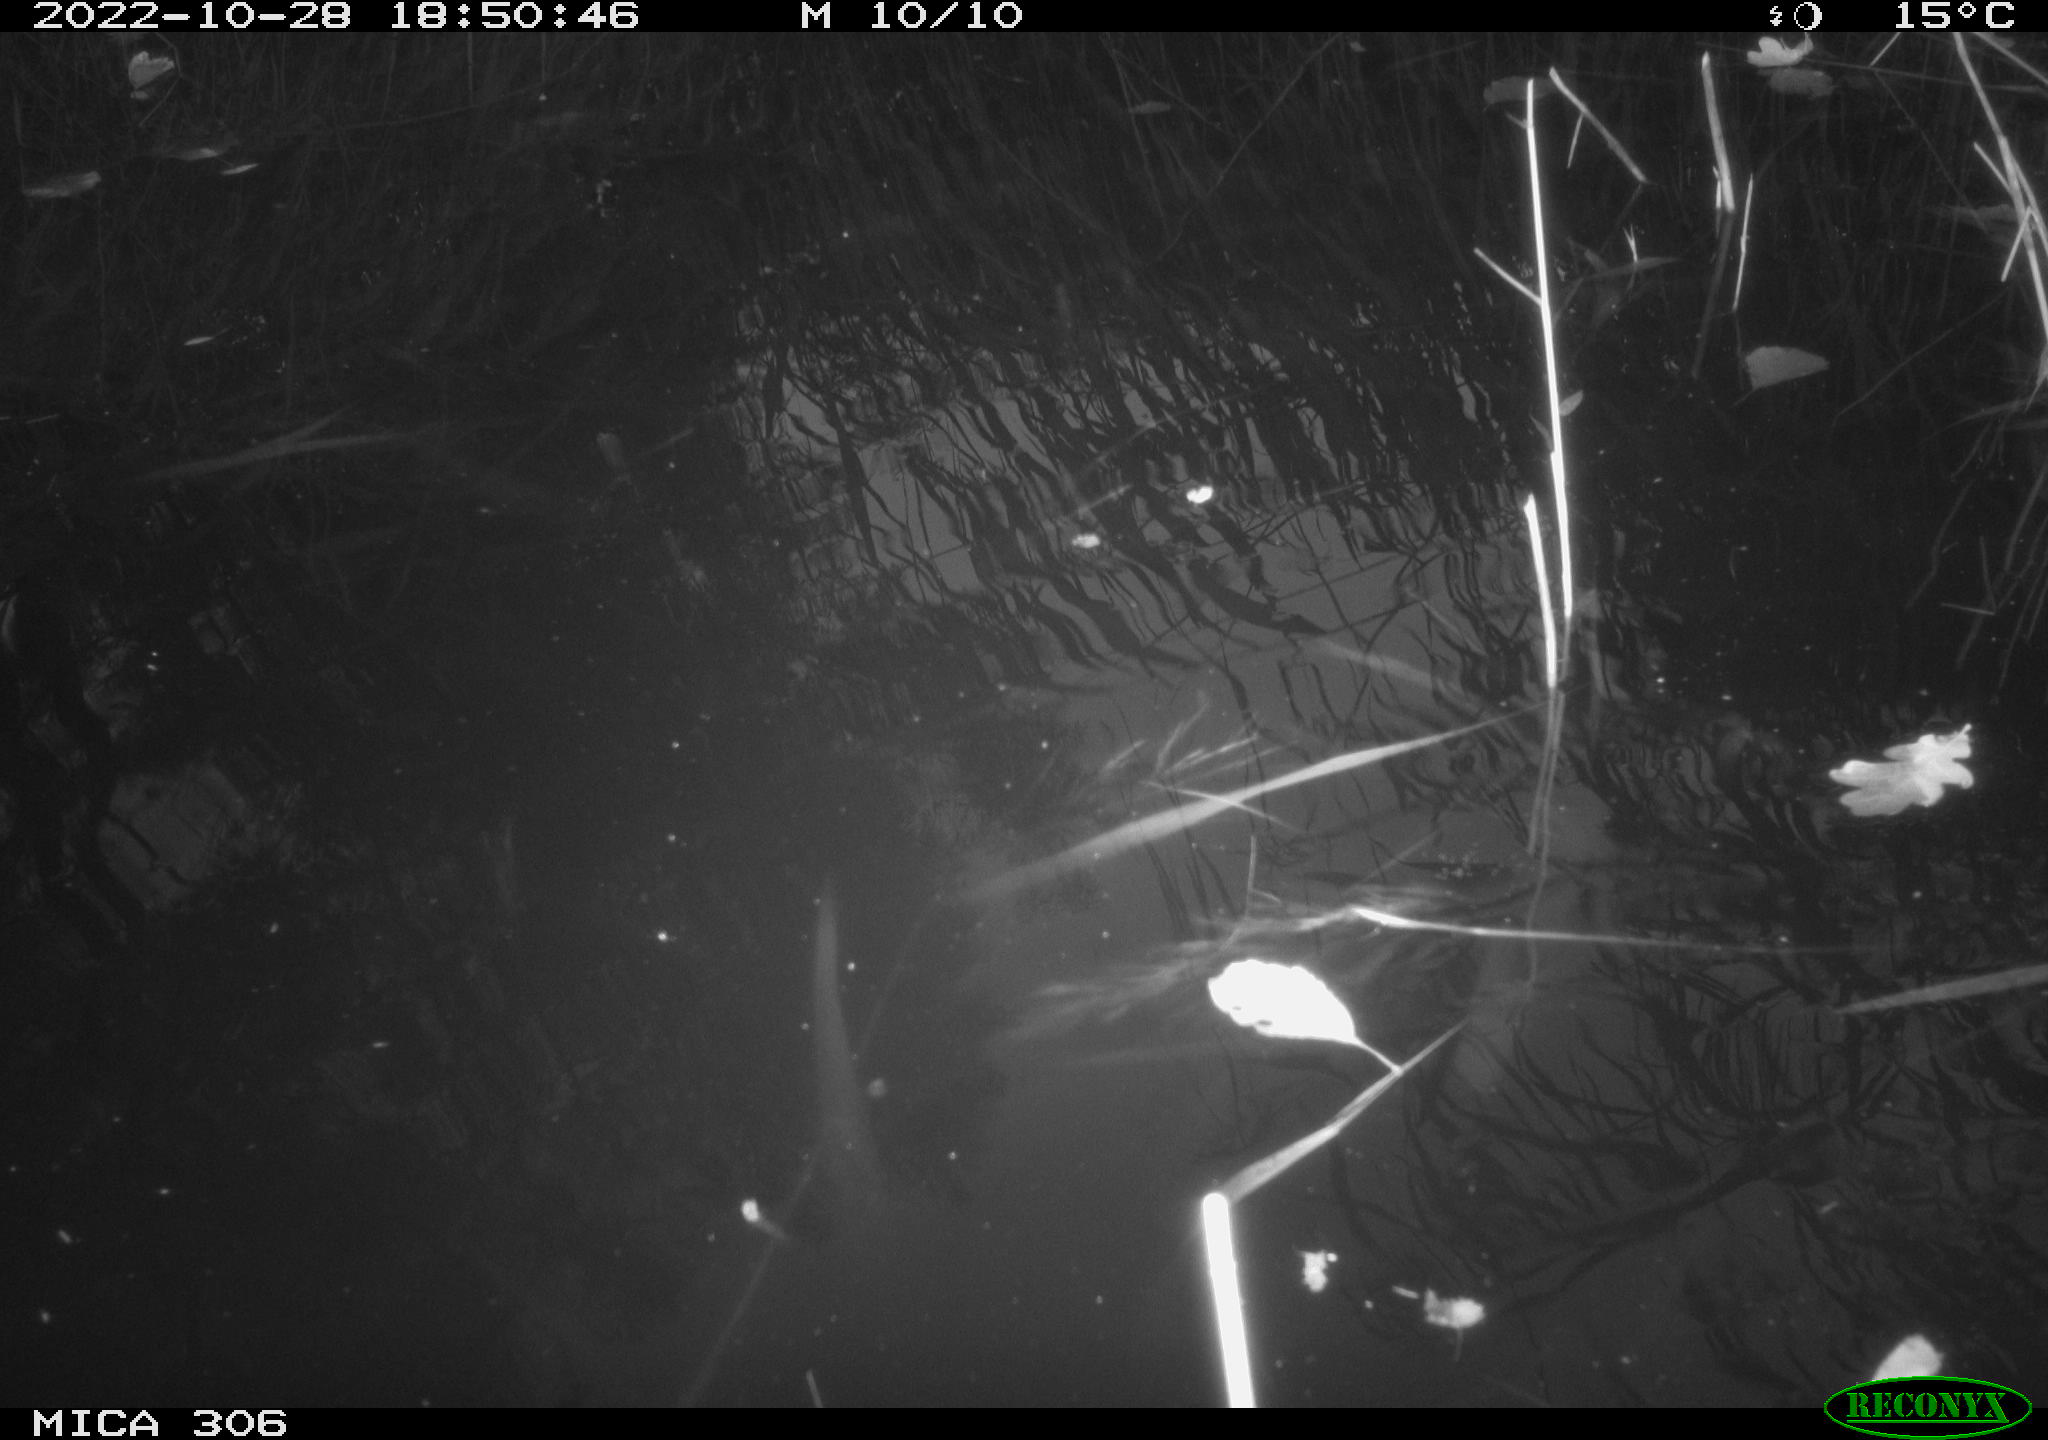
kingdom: Animalia
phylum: Chordata
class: Aves
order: Anseriformes
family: Anatidae
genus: Anas
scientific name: Anas
